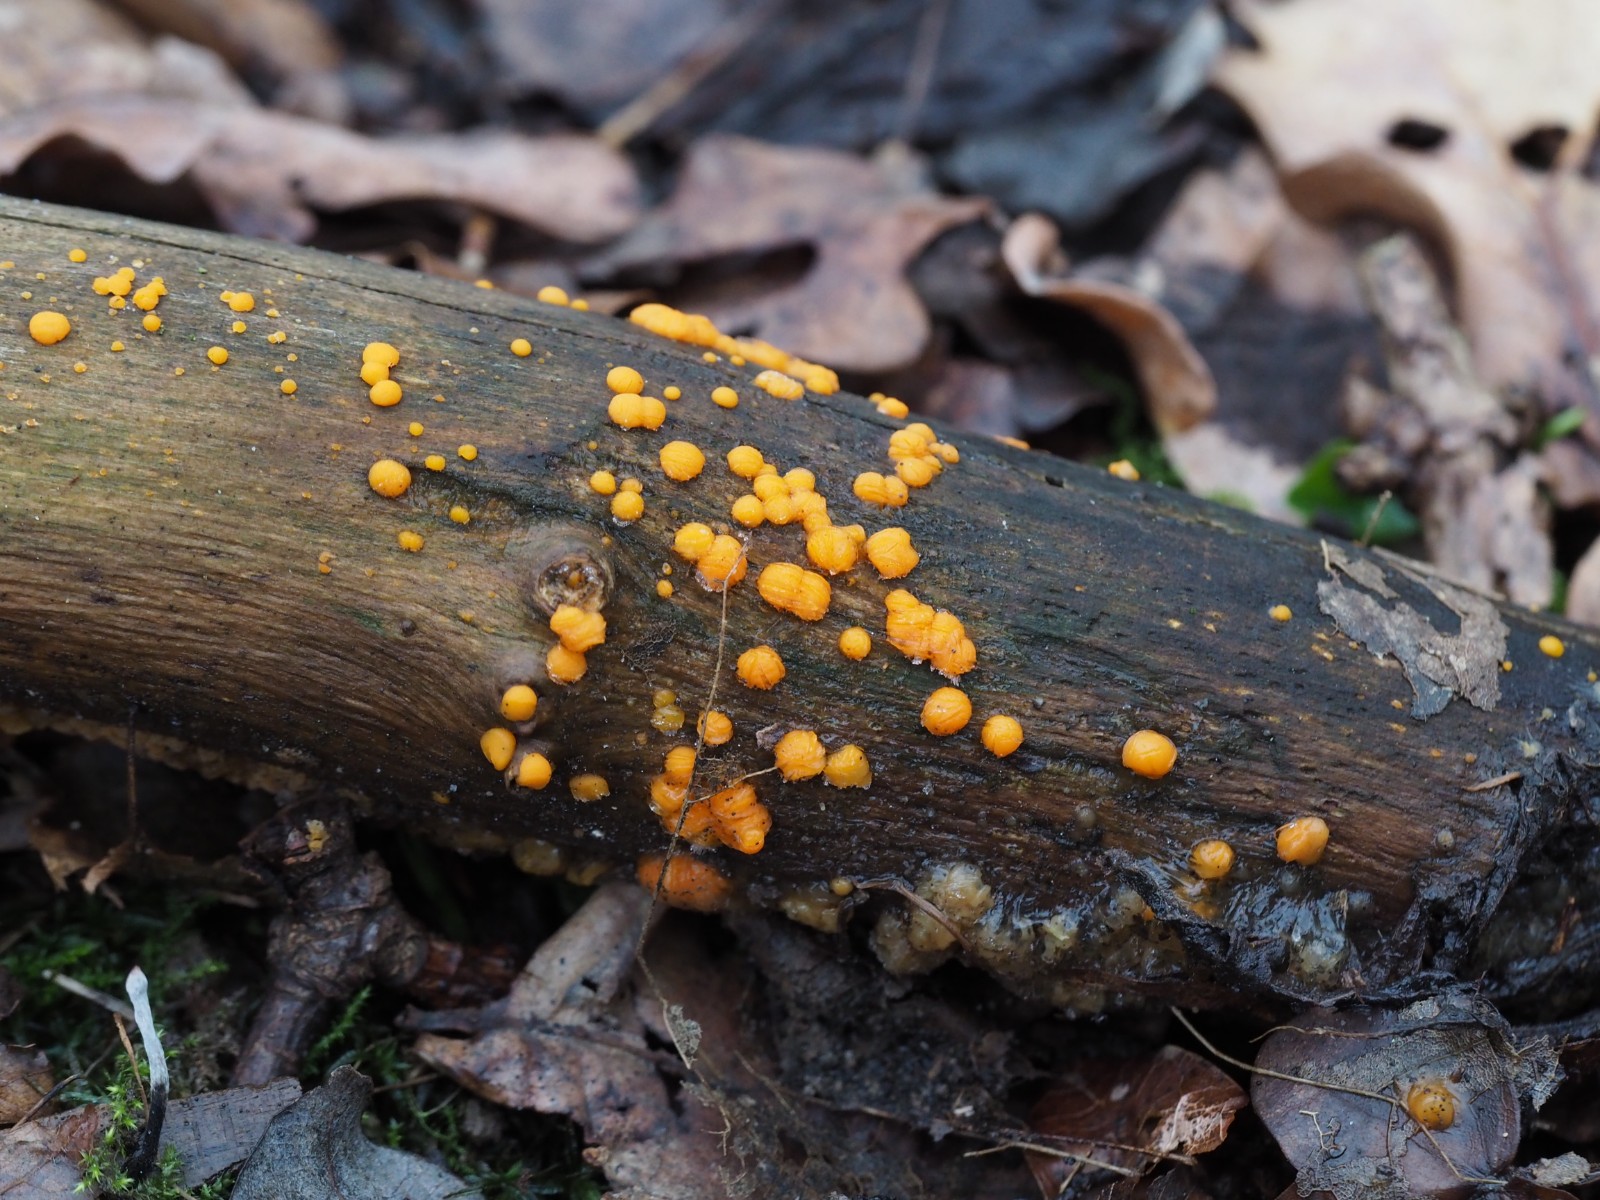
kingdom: Fungi
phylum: Basidiomycota
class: Dacrymycetes
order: Dacrymycetales
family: Dacrymycetaceae
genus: Dacrymyces
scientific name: Dacrymyces stillatus
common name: almindelig tåresvamp
